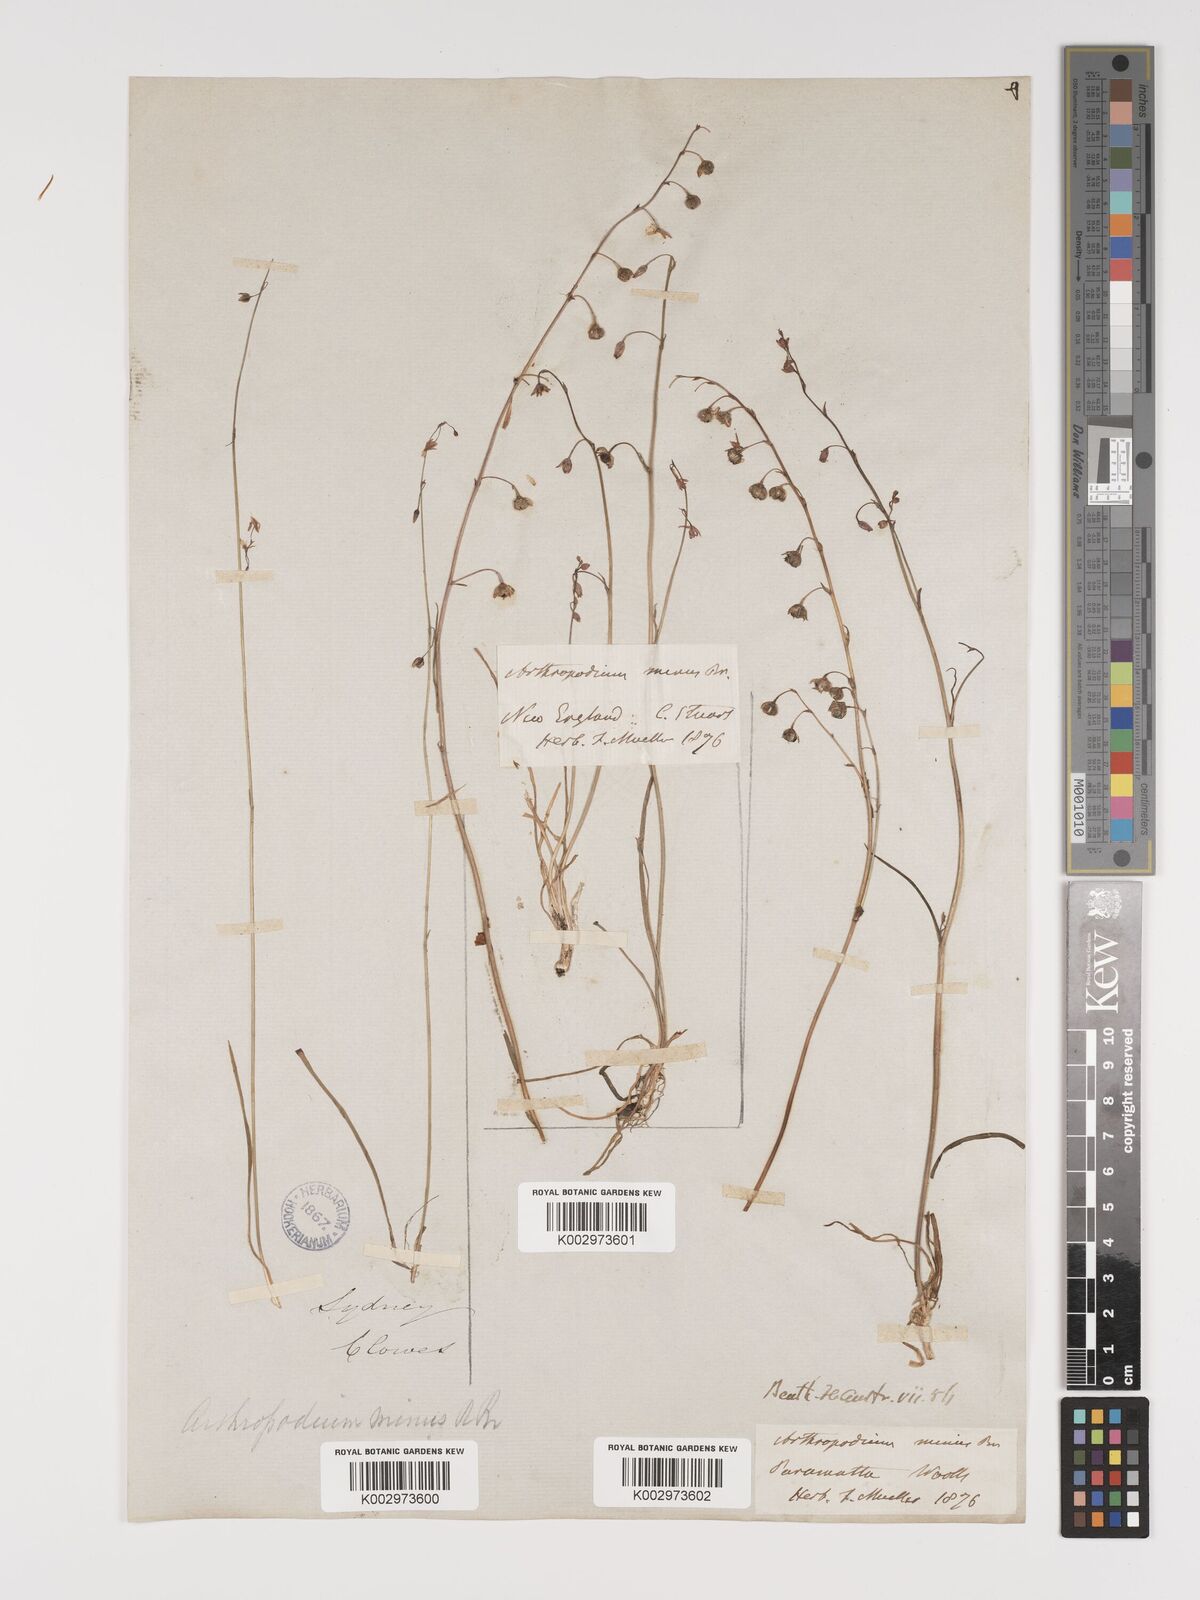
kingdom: Plantae
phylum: Tracheophyta
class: Liliopsida
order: Asparagales
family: Asparagaceae
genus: Arthropodium
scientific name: Arthropodium minus
